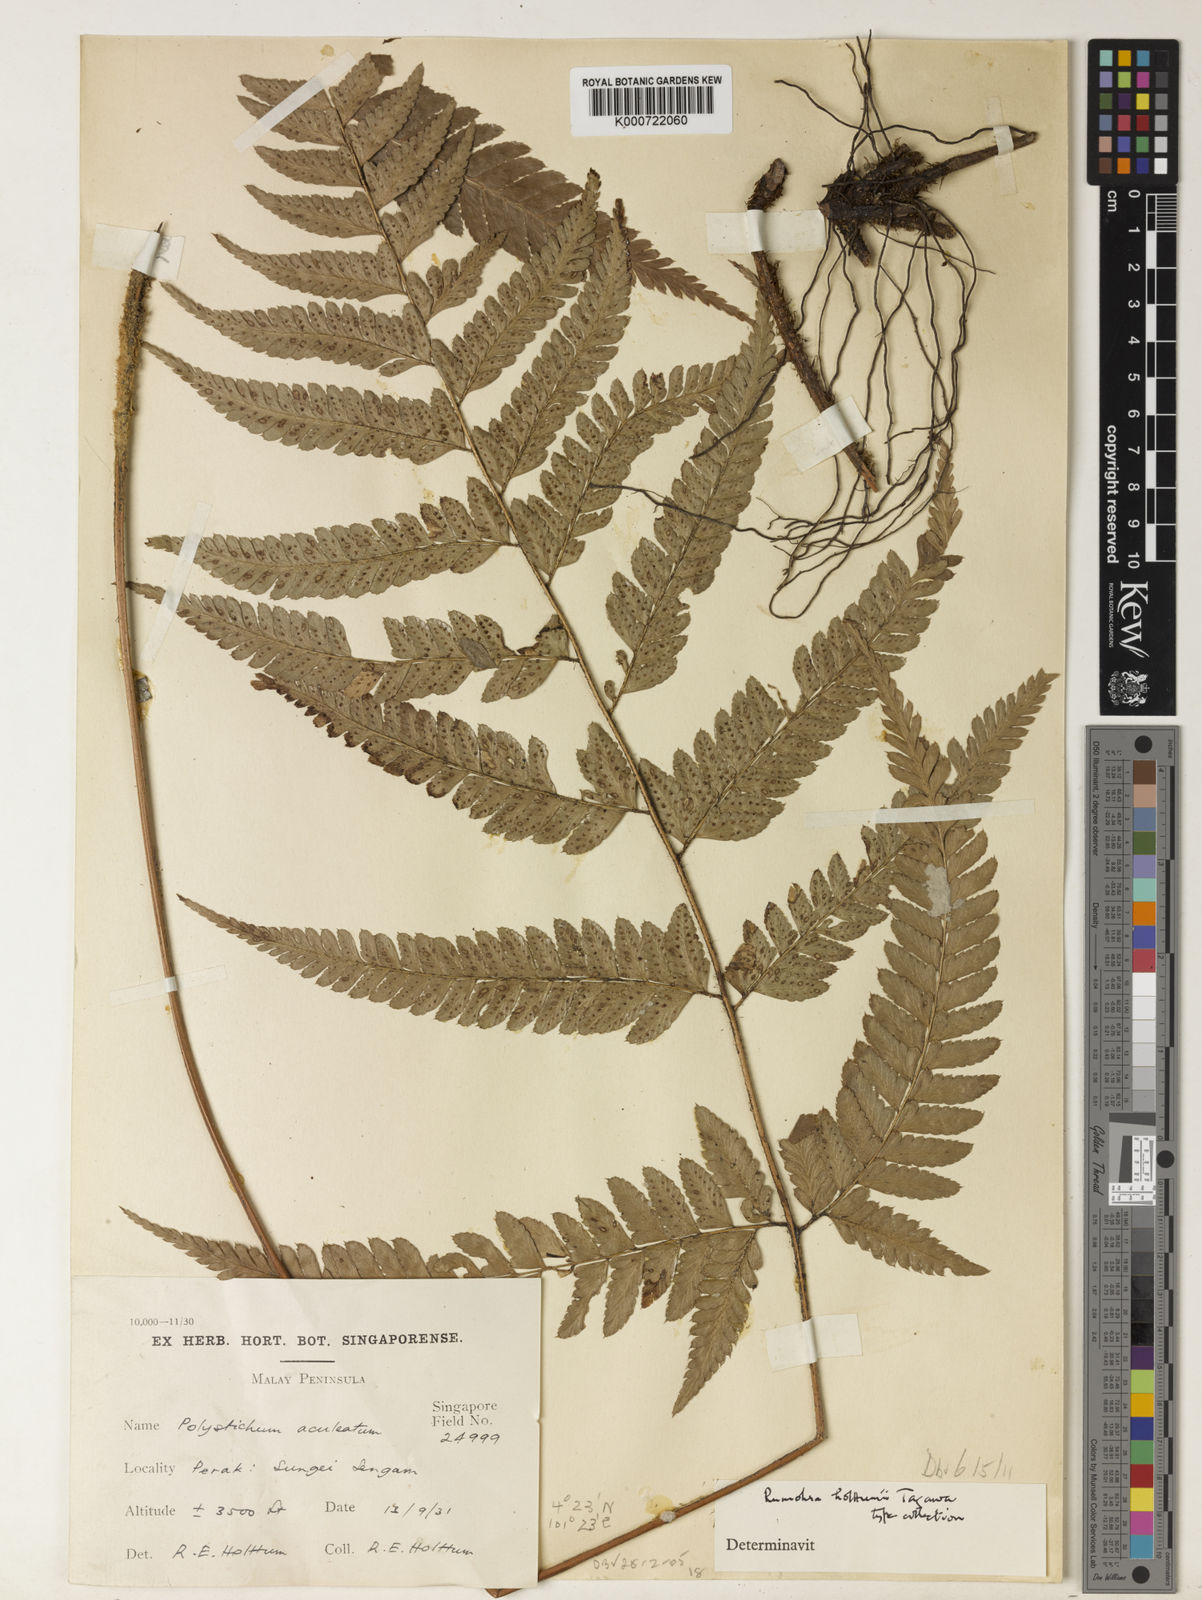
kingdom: Plantae
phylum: Tracheophyta
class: Polypodiopsida
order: Polypodiales
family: Dryopteridaceae
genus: Arachniodes
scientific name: Arachniodes chinensis
